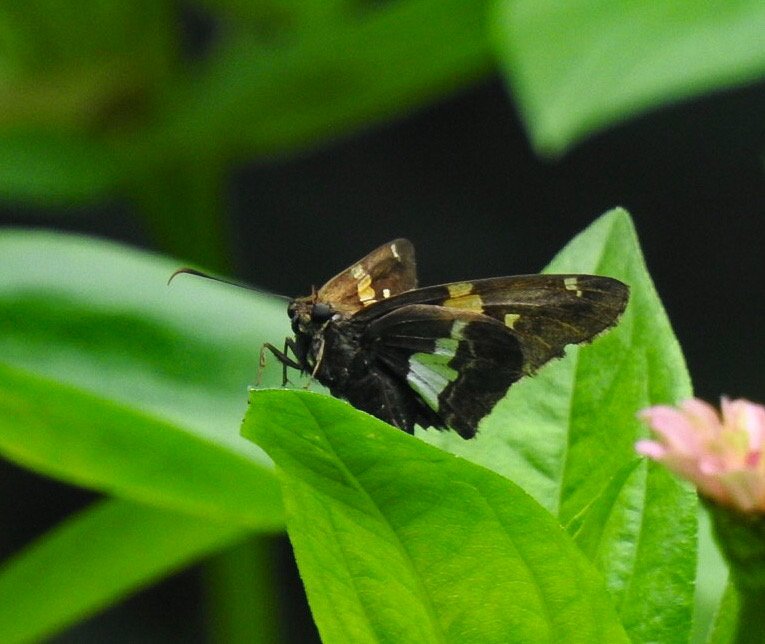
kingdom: Animalia
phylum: Arthropoda
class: Insecta
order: Lepidoptera
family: Hesperiidae
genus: Epargyreus
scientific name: Epargyreus clarus
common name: Silver-spotted Skipper
